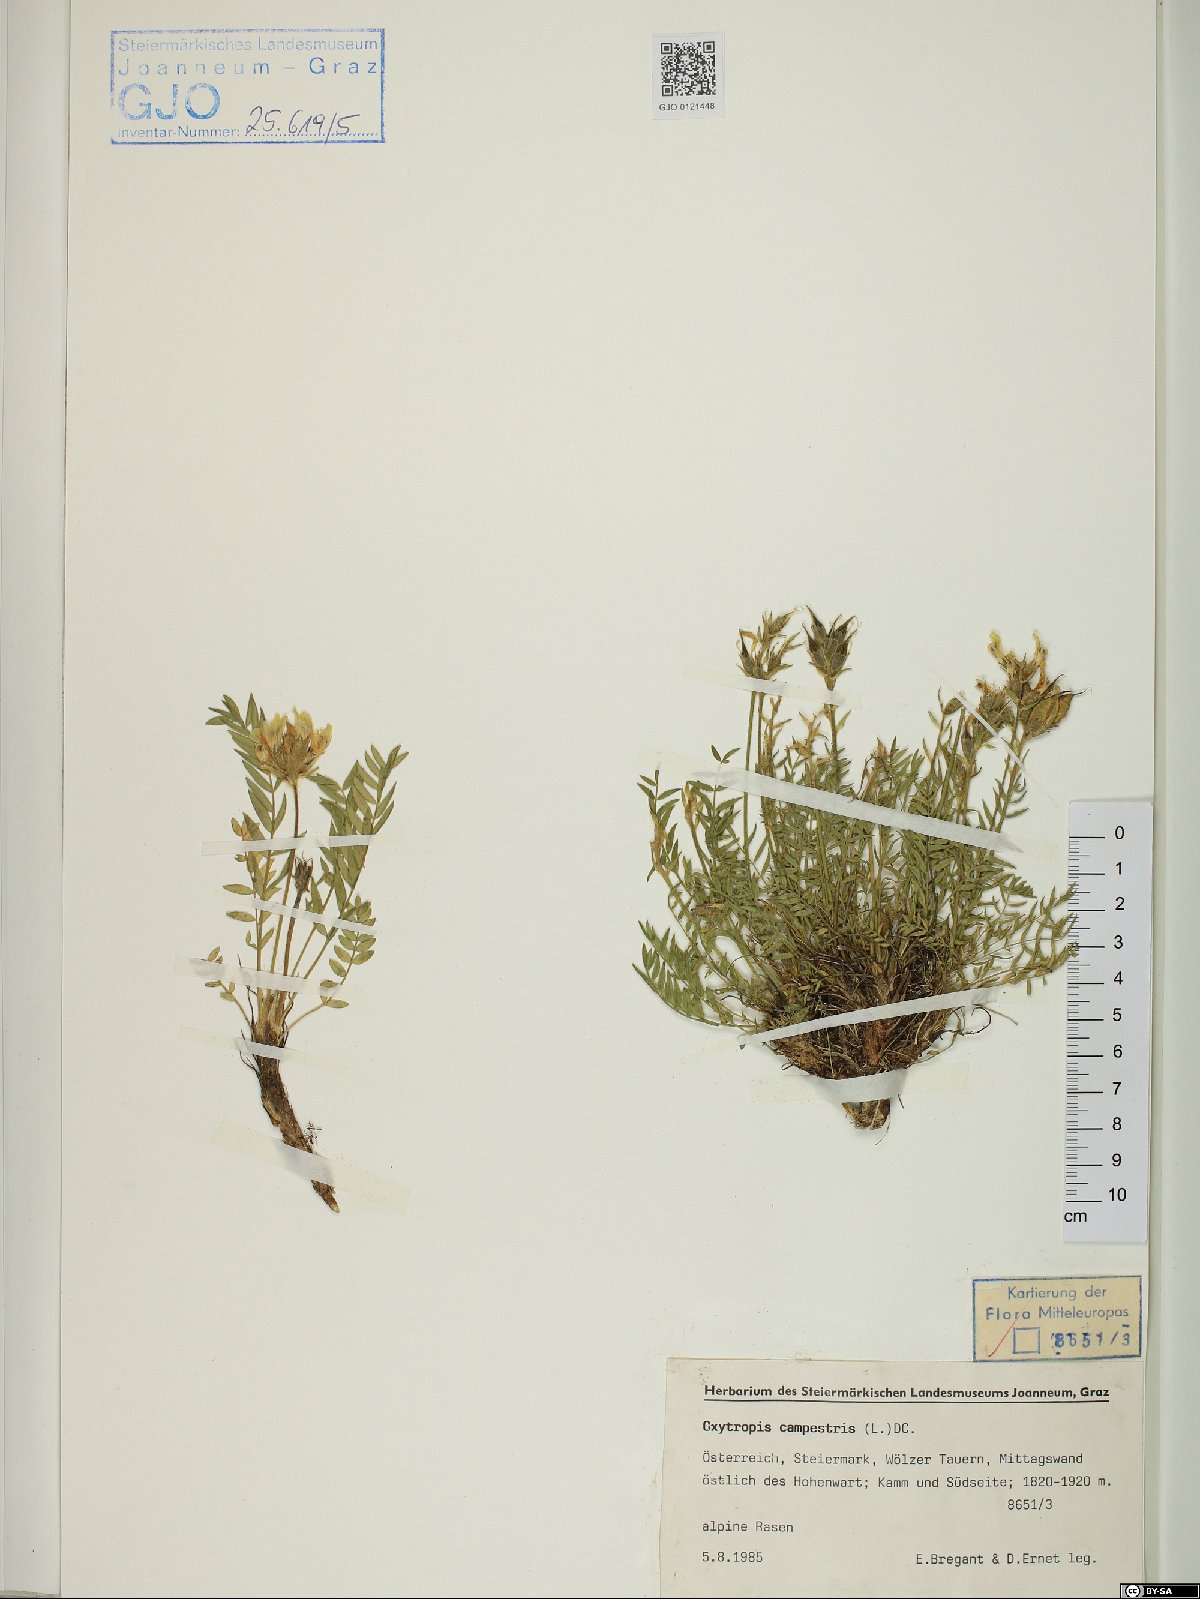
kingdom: Plantae
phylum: Tracheophyta
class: Magnoliopsida
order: Fabales
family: Fabaceae
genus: Oxytropis
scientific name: Oxytropis campestris
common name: Field locoweed
